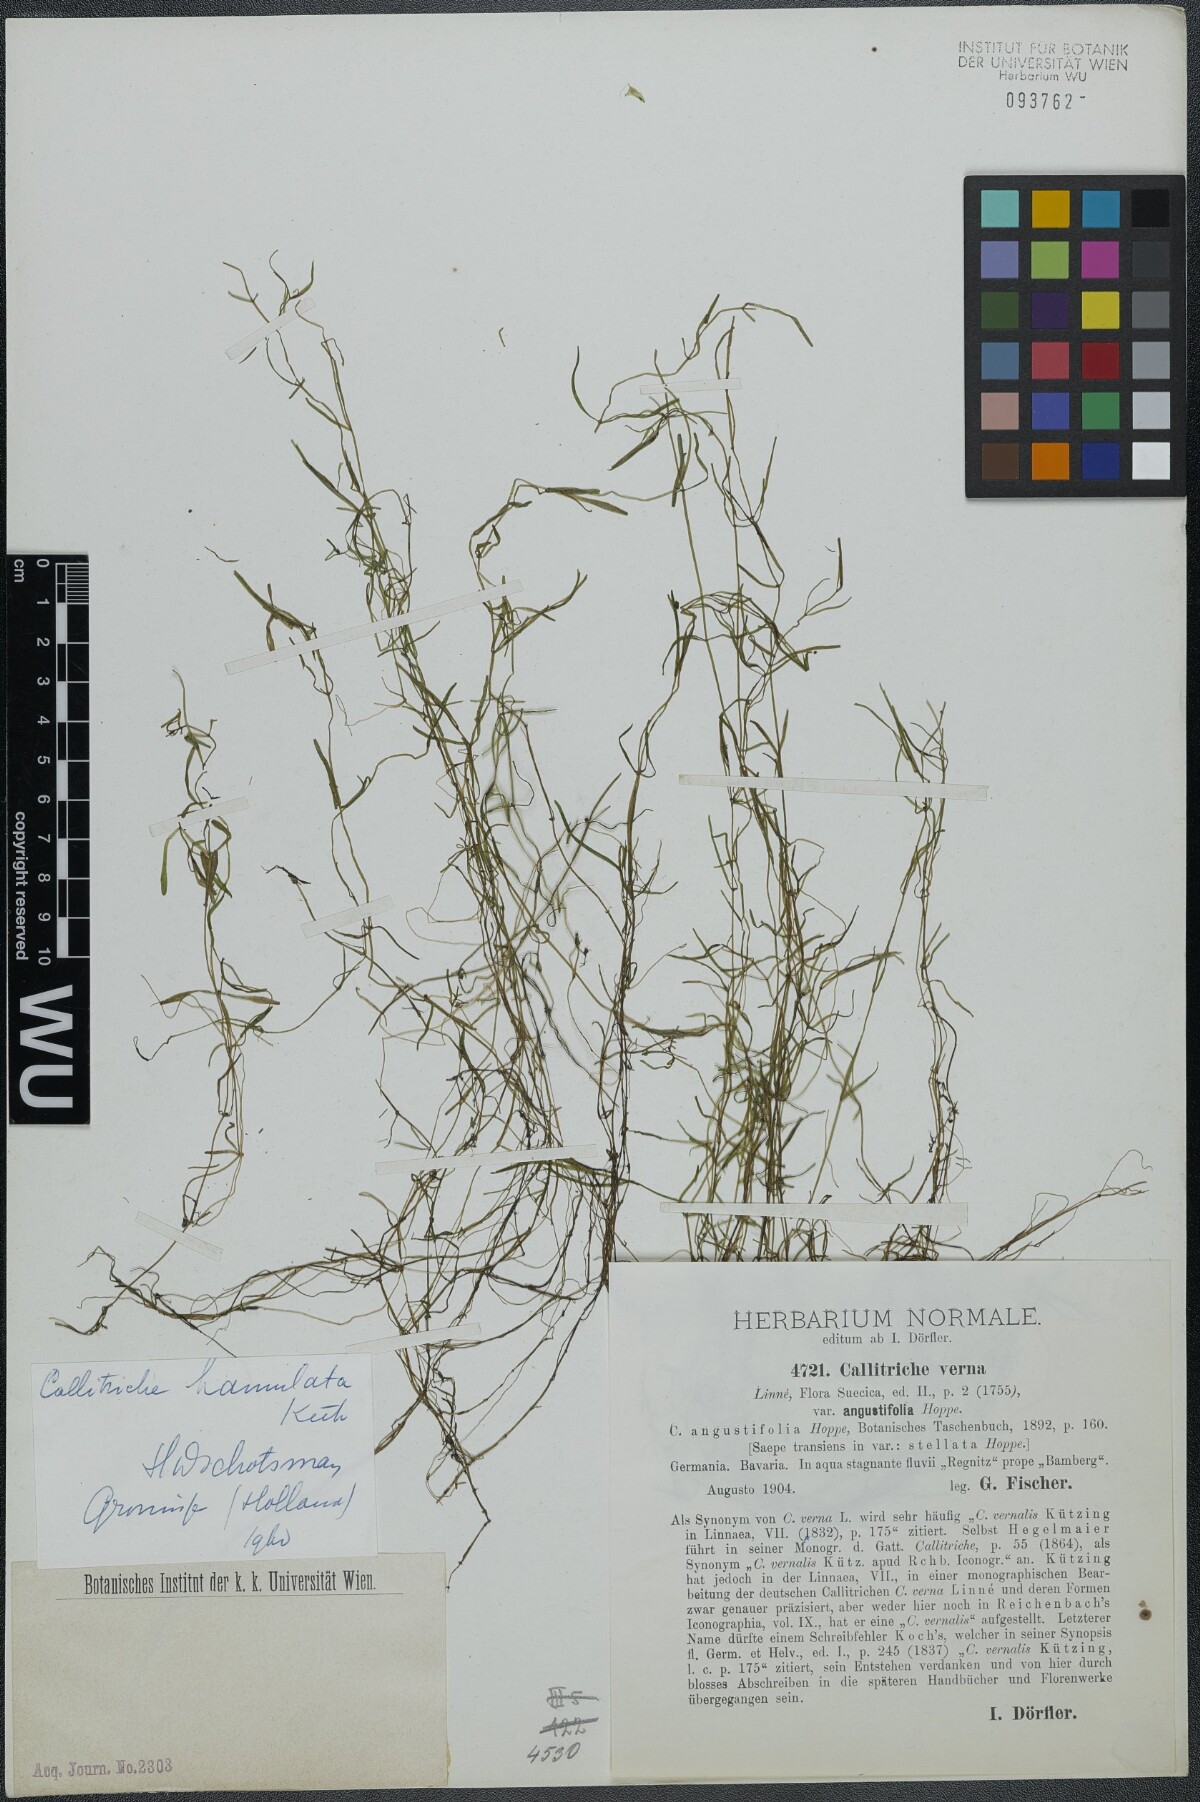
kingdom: Plantae
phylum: Tracheophyta
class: Magnoliopsida
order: Lamiales
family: Plantaginaceae
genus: Callitriche
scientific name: Callitriche hamulata
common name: Intermediate water-starwort
